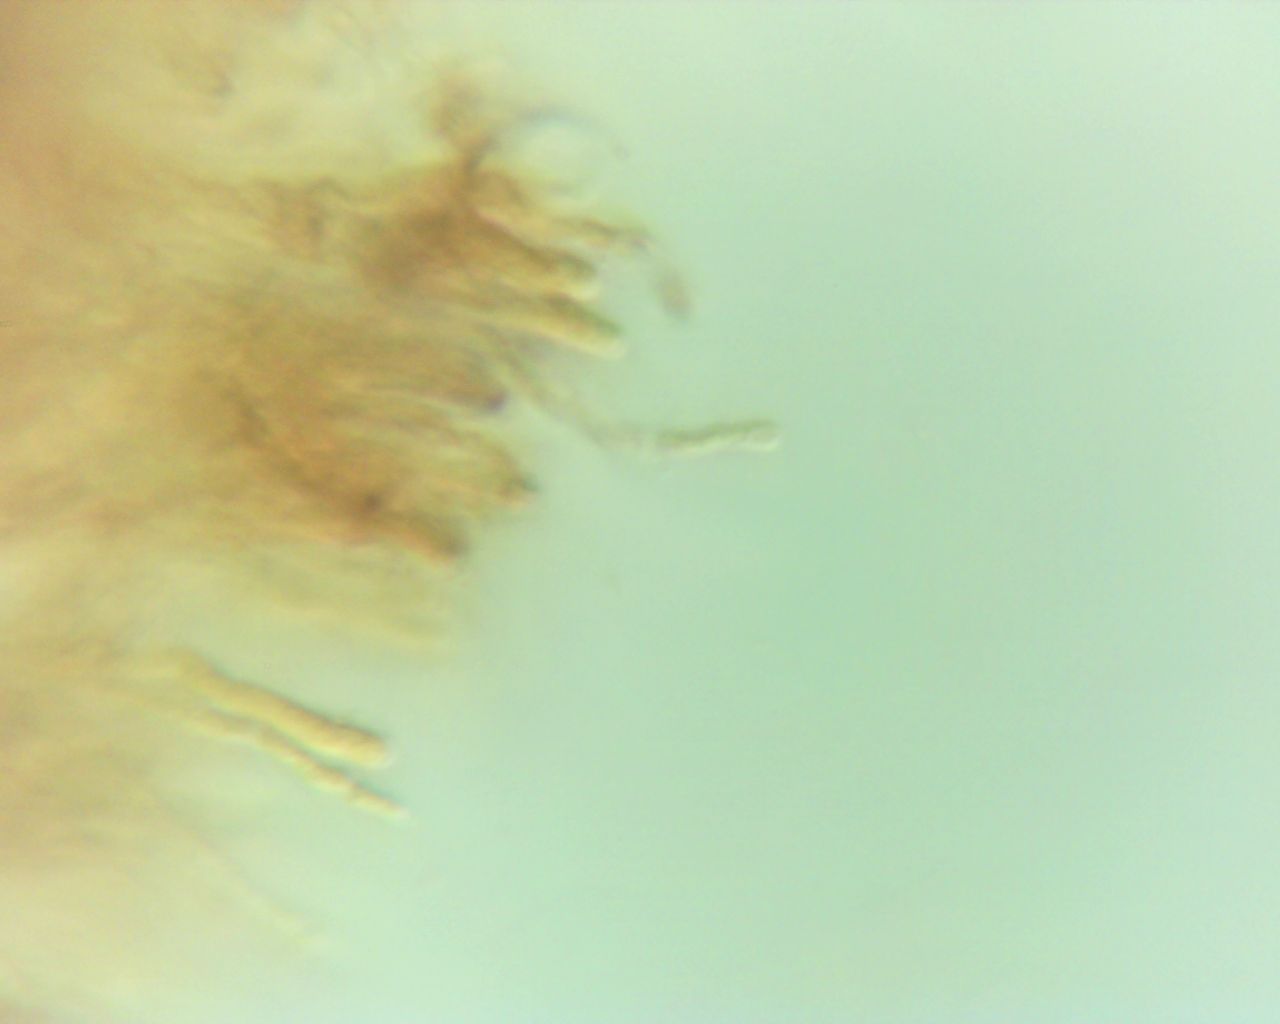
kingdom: Fungi
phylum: Basidiomycota
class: Agaricomycetes
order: Agaricales
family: Typhulaceae
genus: Macrotyphula
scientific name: Macrotyphula
